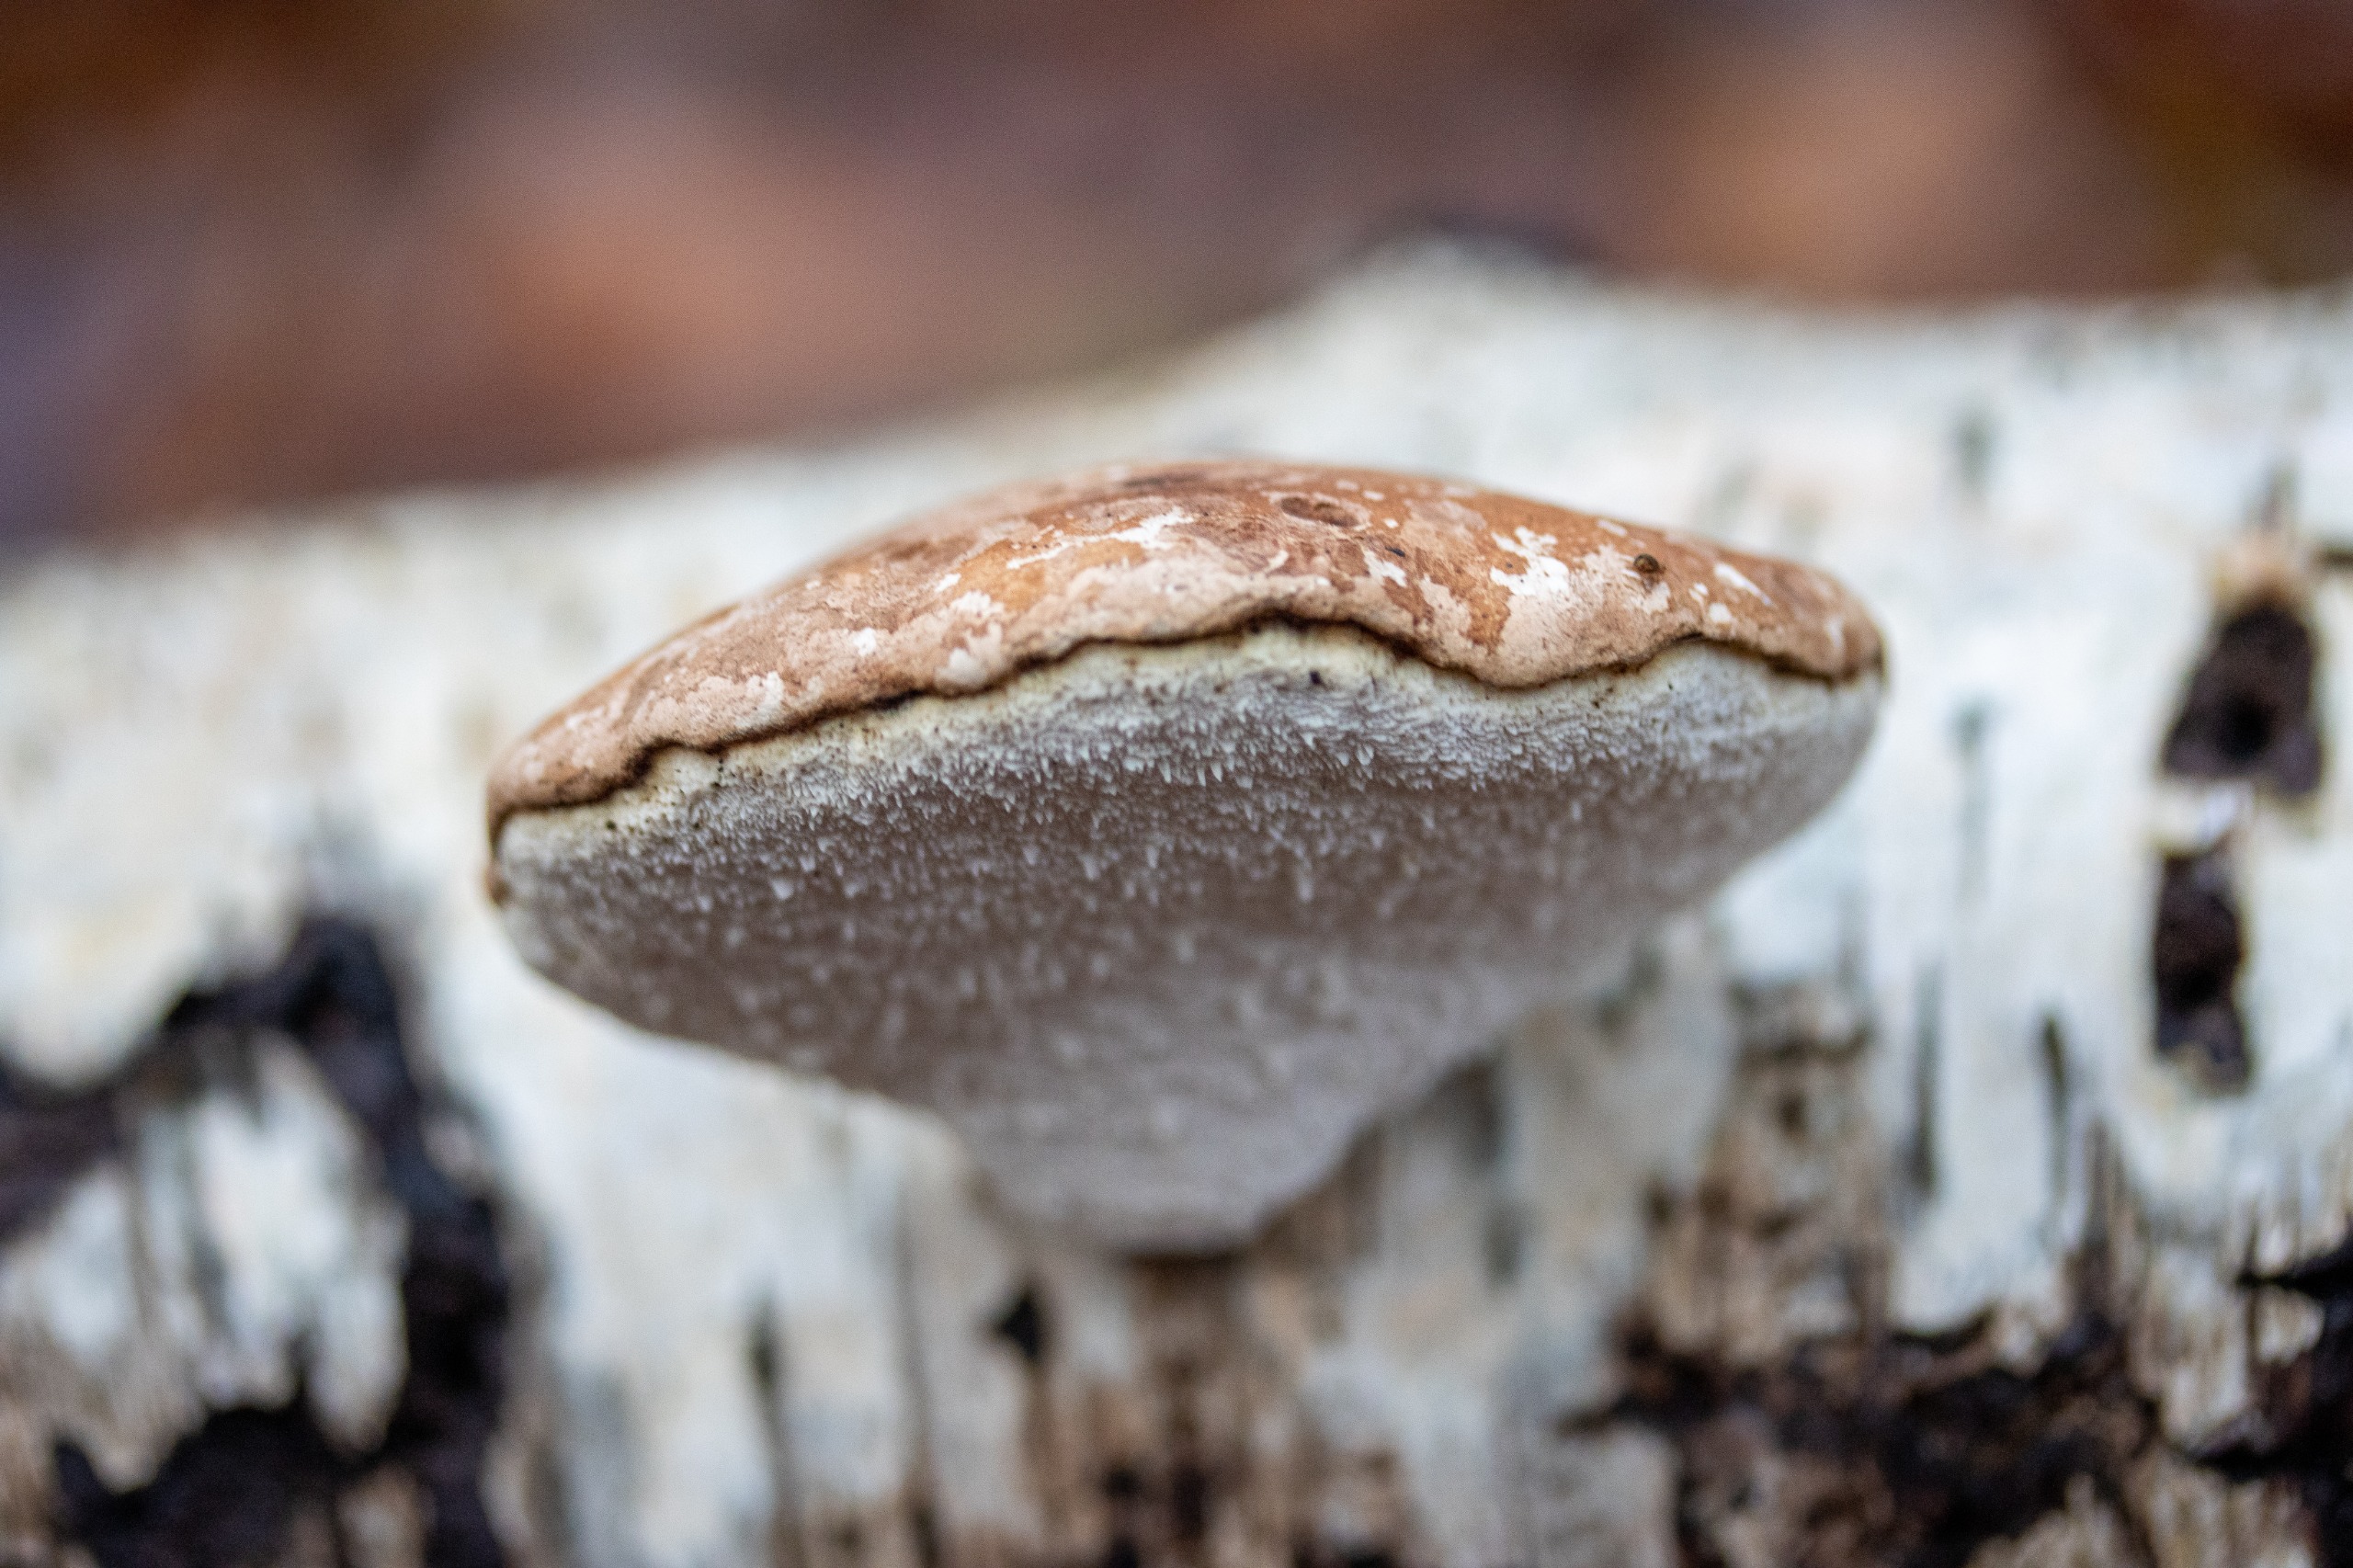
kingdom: Fungi
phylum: Basidiomycota
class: Agaricomycetes
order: Polyporales
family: Fomitopsidaceae
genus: Fomitopsis
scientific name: Fomitopsis betulina
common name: Birkeporesvamp
